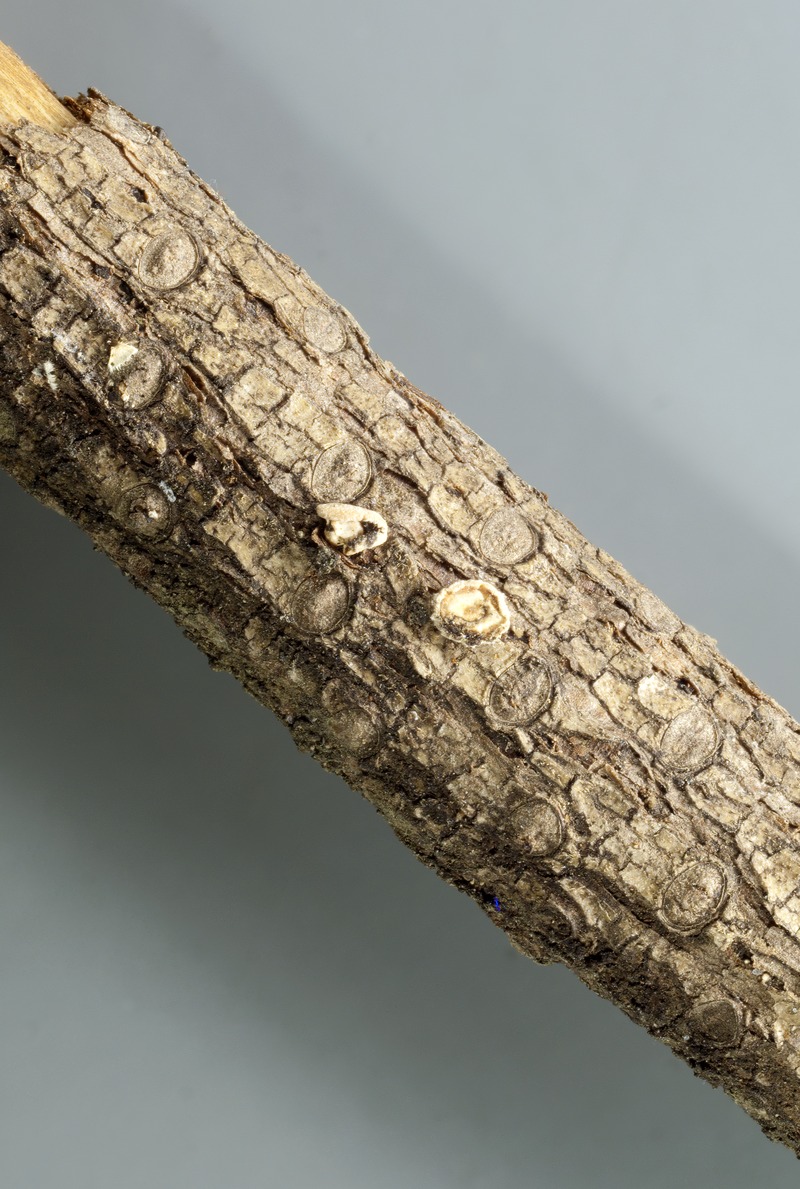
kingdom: Fungi
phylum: Ascomycota
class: Leotiomycetes
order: Helotiales
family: Lachnaceae
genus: Lachnellula
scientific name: Lachnellula robusta
